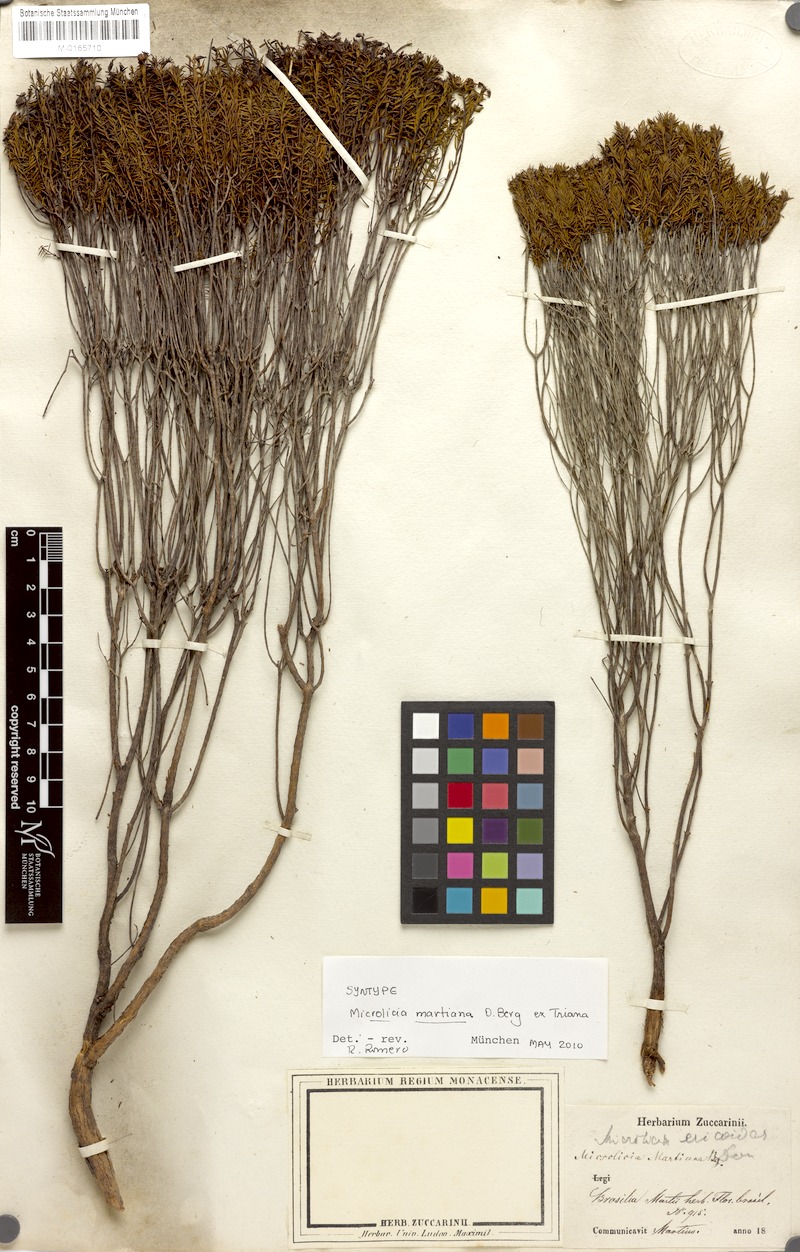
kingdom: Plantae
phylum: Tracheophyta
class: Magnoliopsida
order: Myrtales
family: Melastomataceae
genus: Microlicia
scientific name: Microlicia martiana
